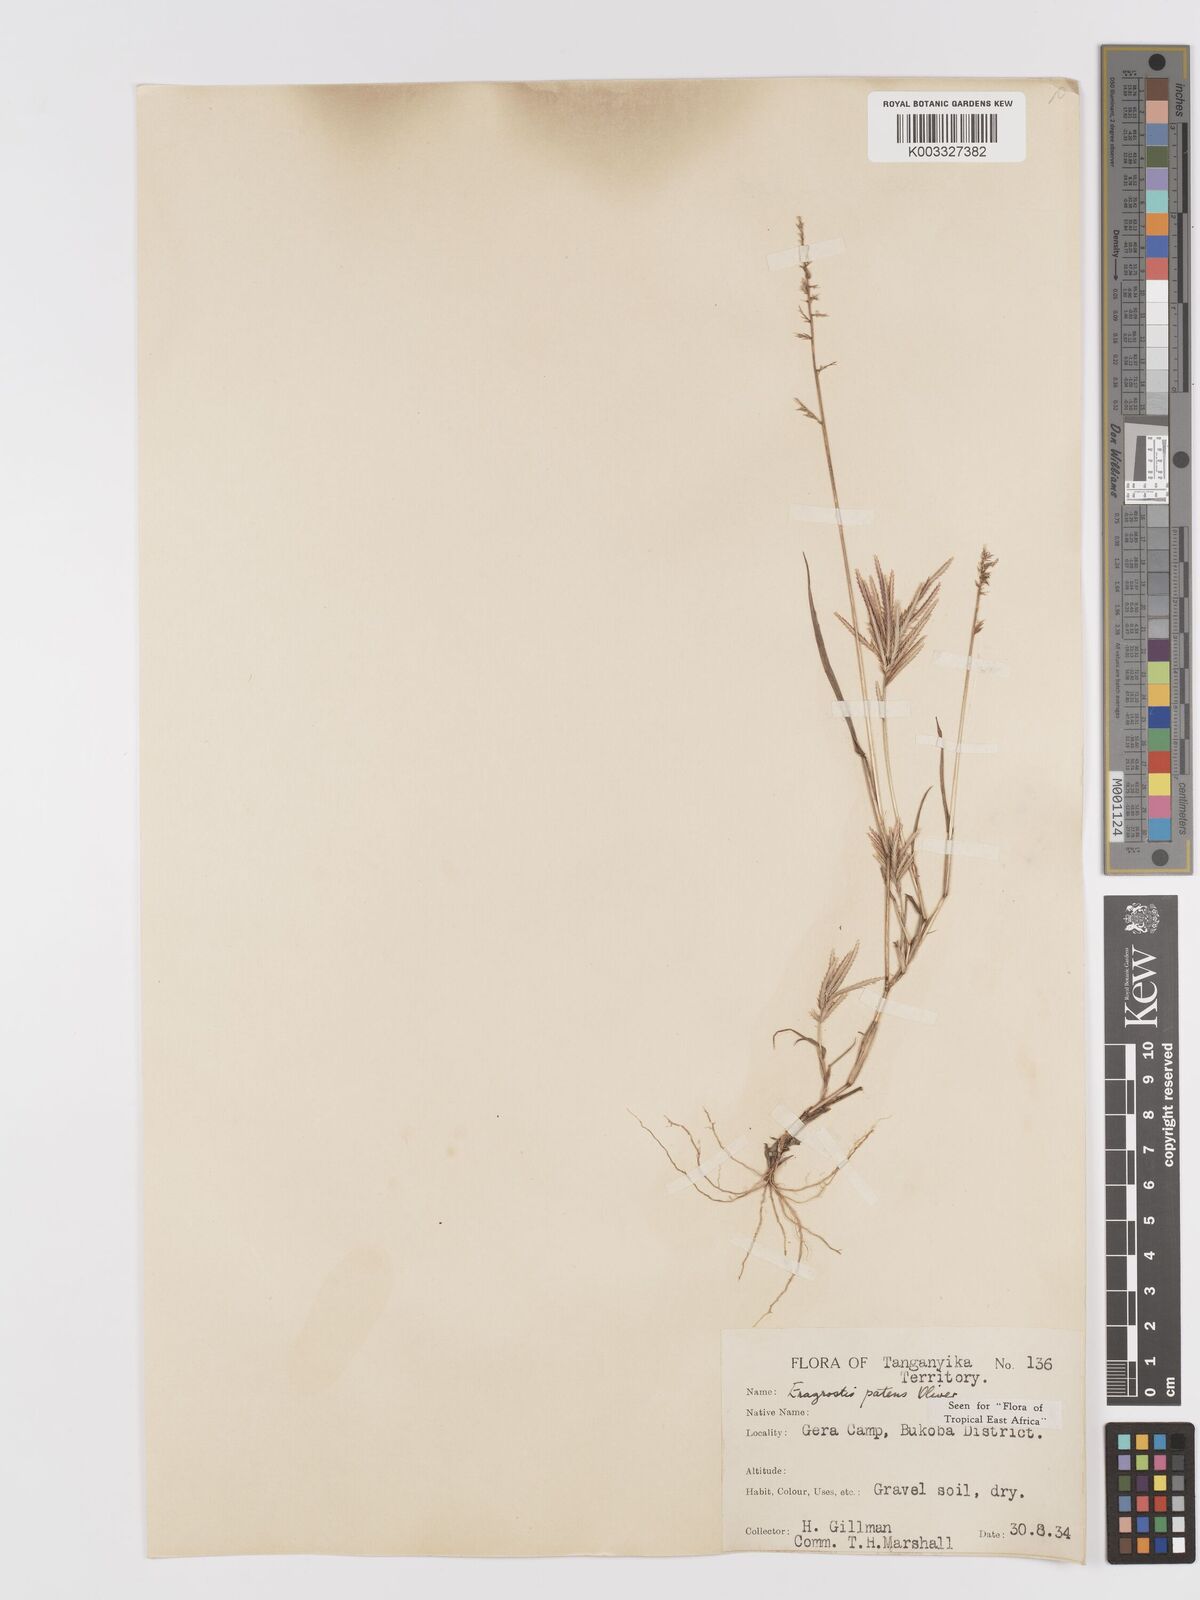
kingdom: Plantae
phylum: Tracheophyta
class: Liliopsida
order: Poales
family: Poaceae
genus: Eragrostis
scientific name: Eragrostis patens
